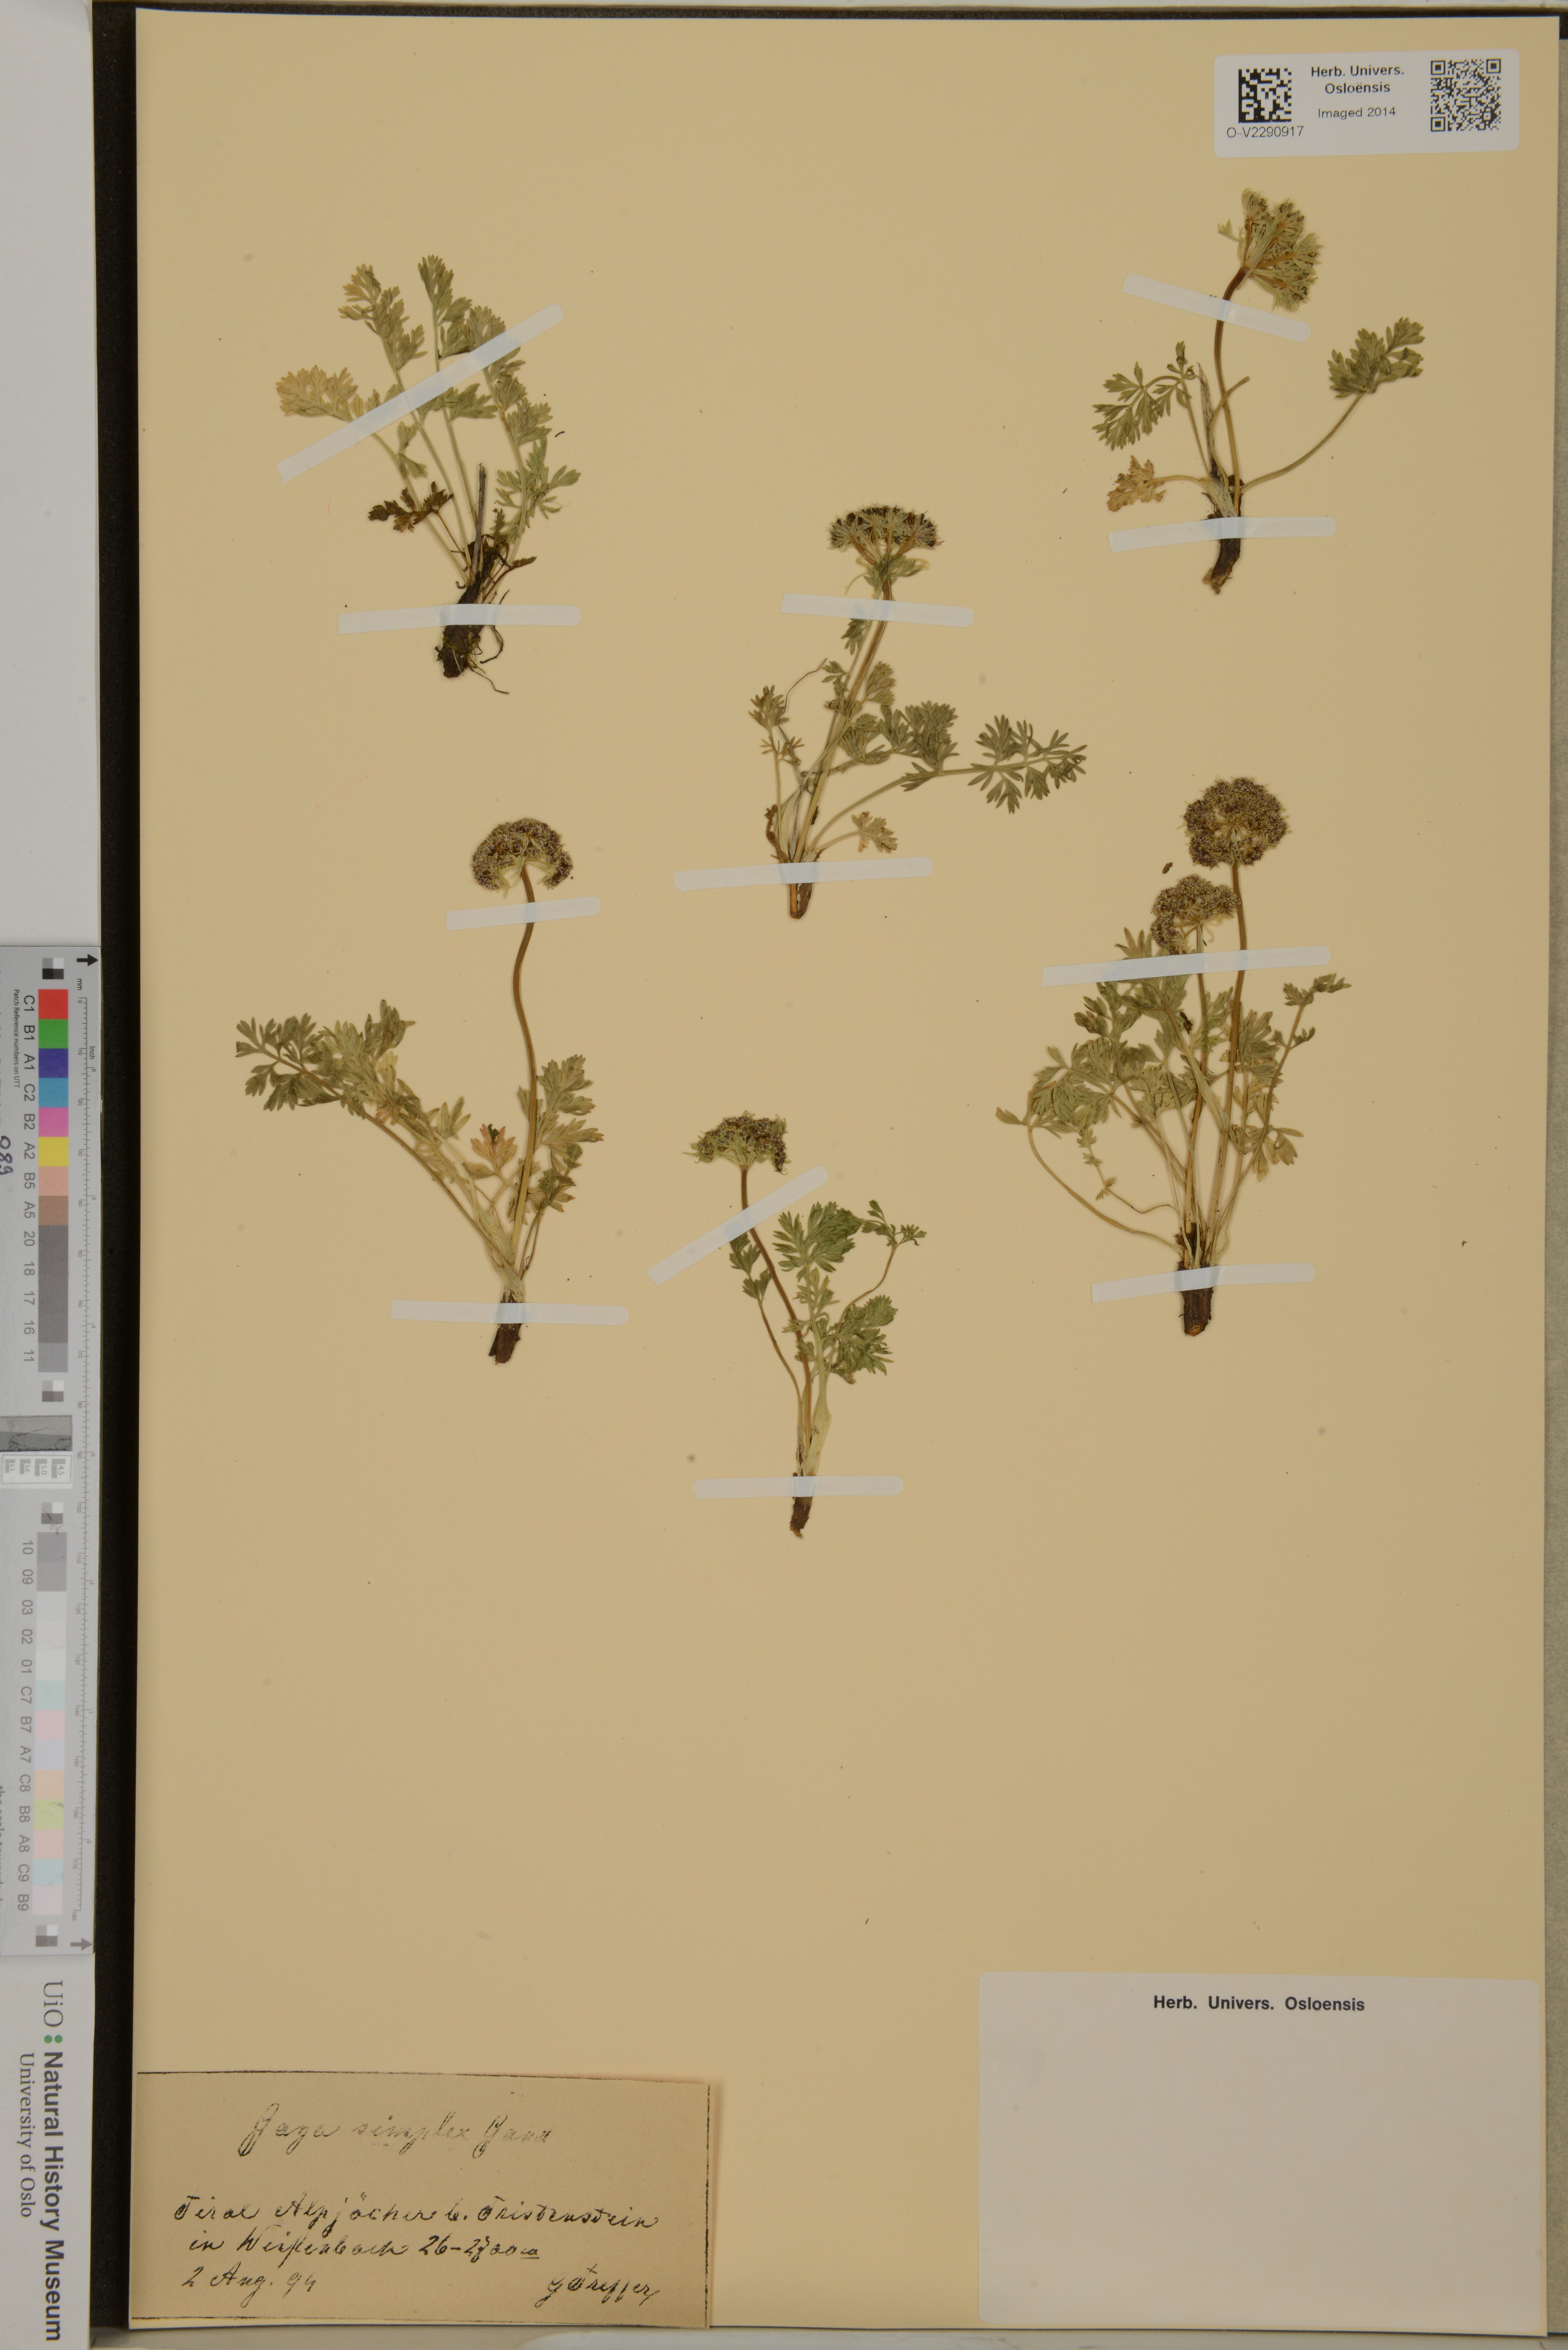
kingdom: Plantae
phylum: Tracheophyta
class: Magnoliopsida
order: Apiales
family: Apiaceae
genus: Pachypleurum
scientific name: Pachypleurum mutellinoides
